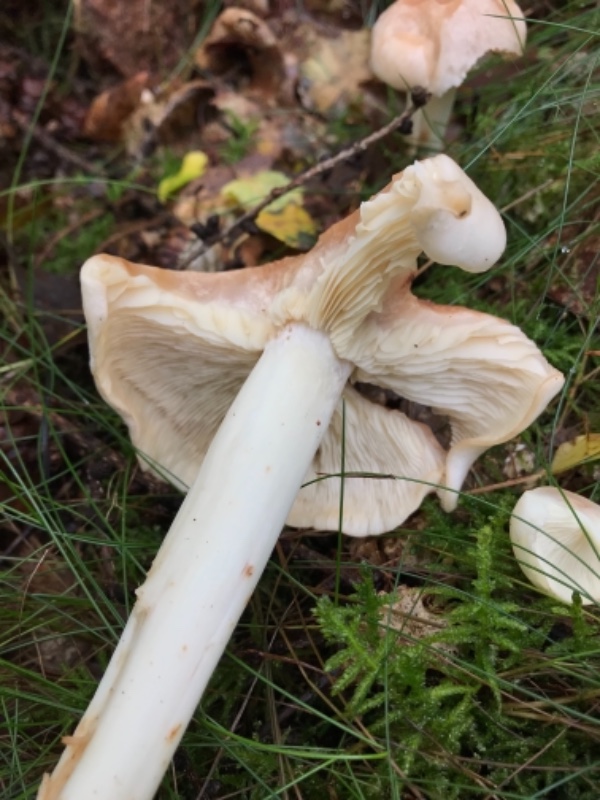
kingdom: Fungi
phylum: Basidiomycota
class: Agaricomycetes
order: Agaricales
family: Omphalotaceae
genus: Rhodocollybia
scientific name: Rhodocollybia maculata
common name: plettet fladhat
